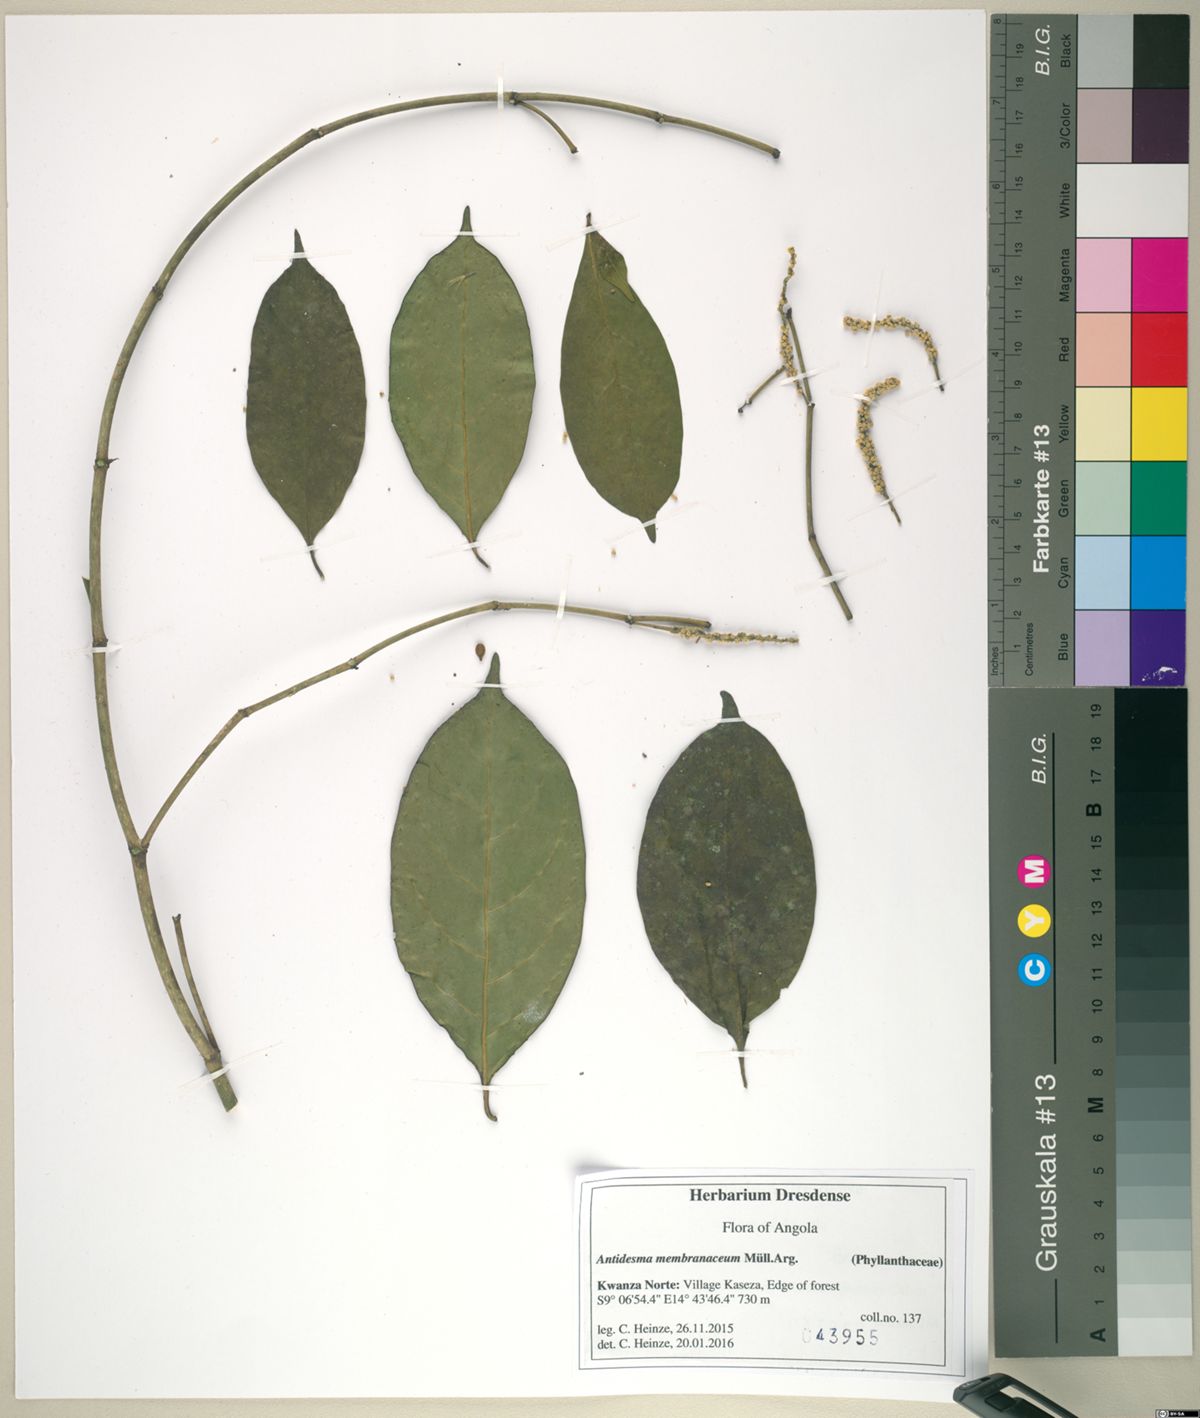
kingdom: Plantae
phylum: Tracheophyta
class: Magnoliopsida
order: Malpighiales
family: Phyllanthaceae
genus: Antidesma
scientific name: Antidesma membranaceum
